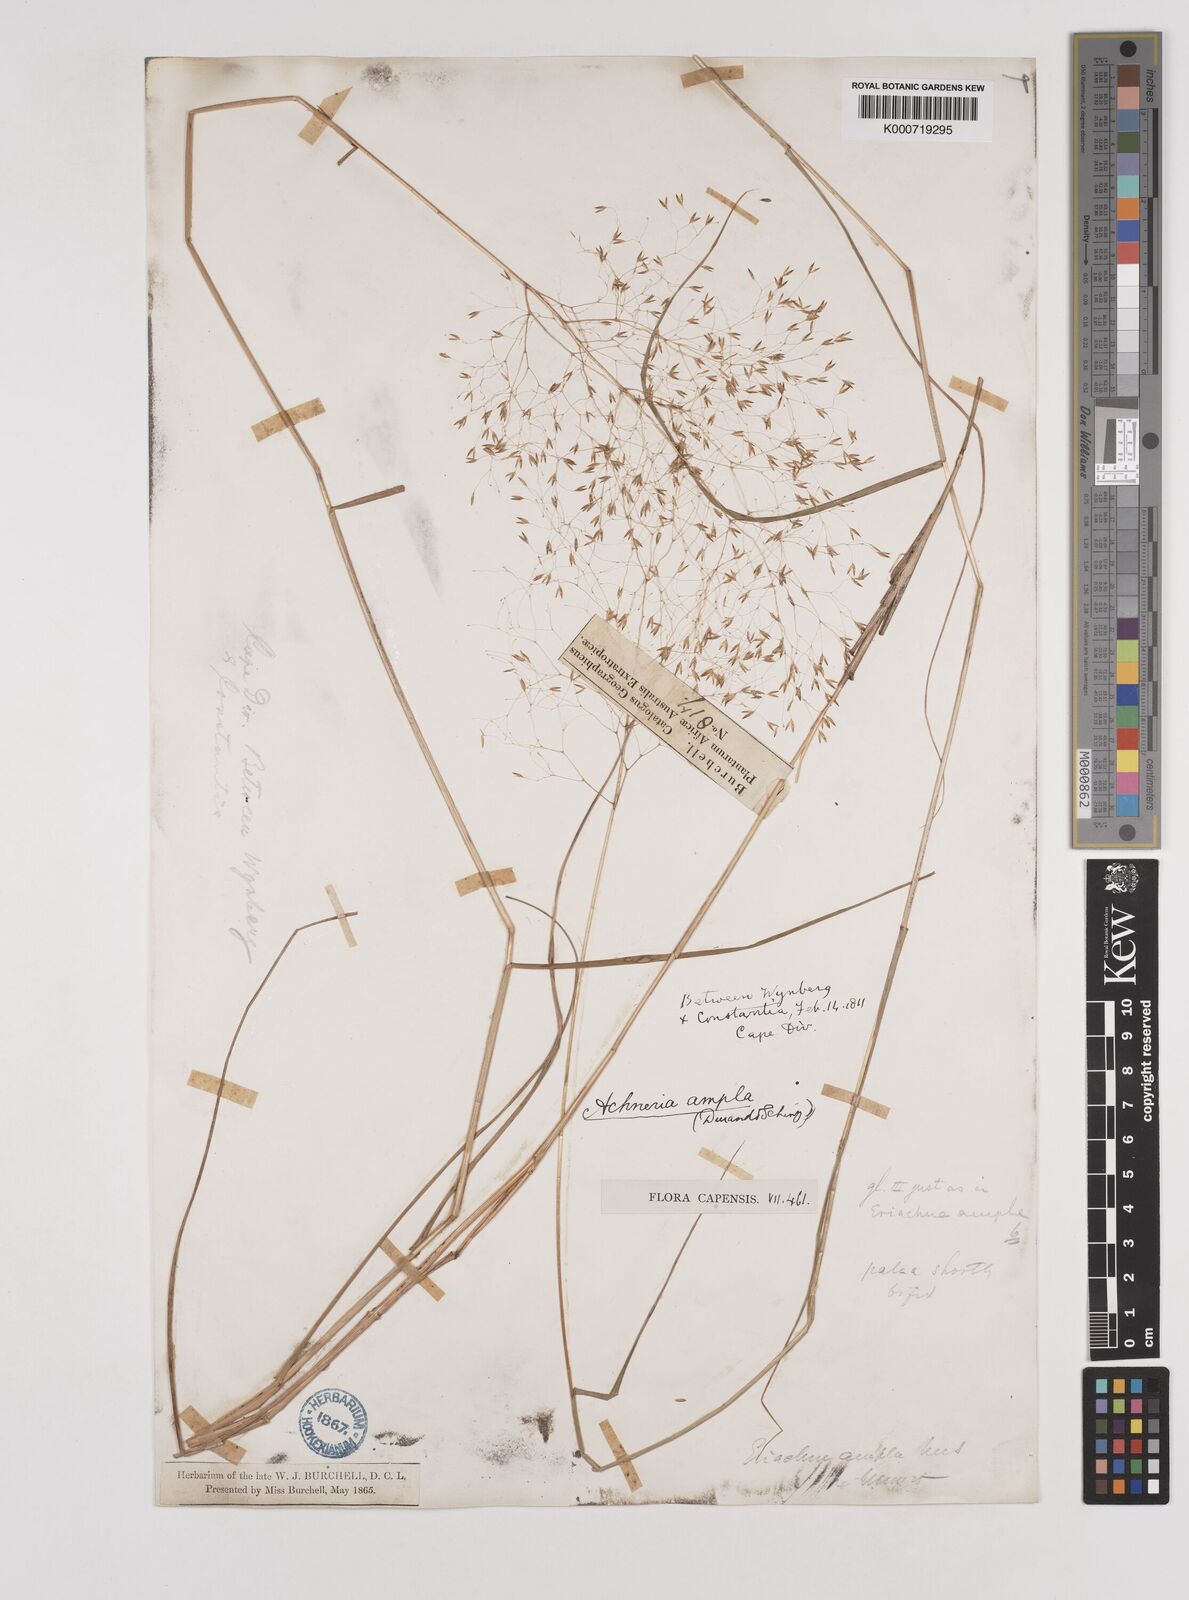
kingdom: Plantae
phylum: Tracheophyta
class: Liliopsida
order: Poales
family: Poaceae
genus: Pentameris
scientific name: Pentameris ampla
